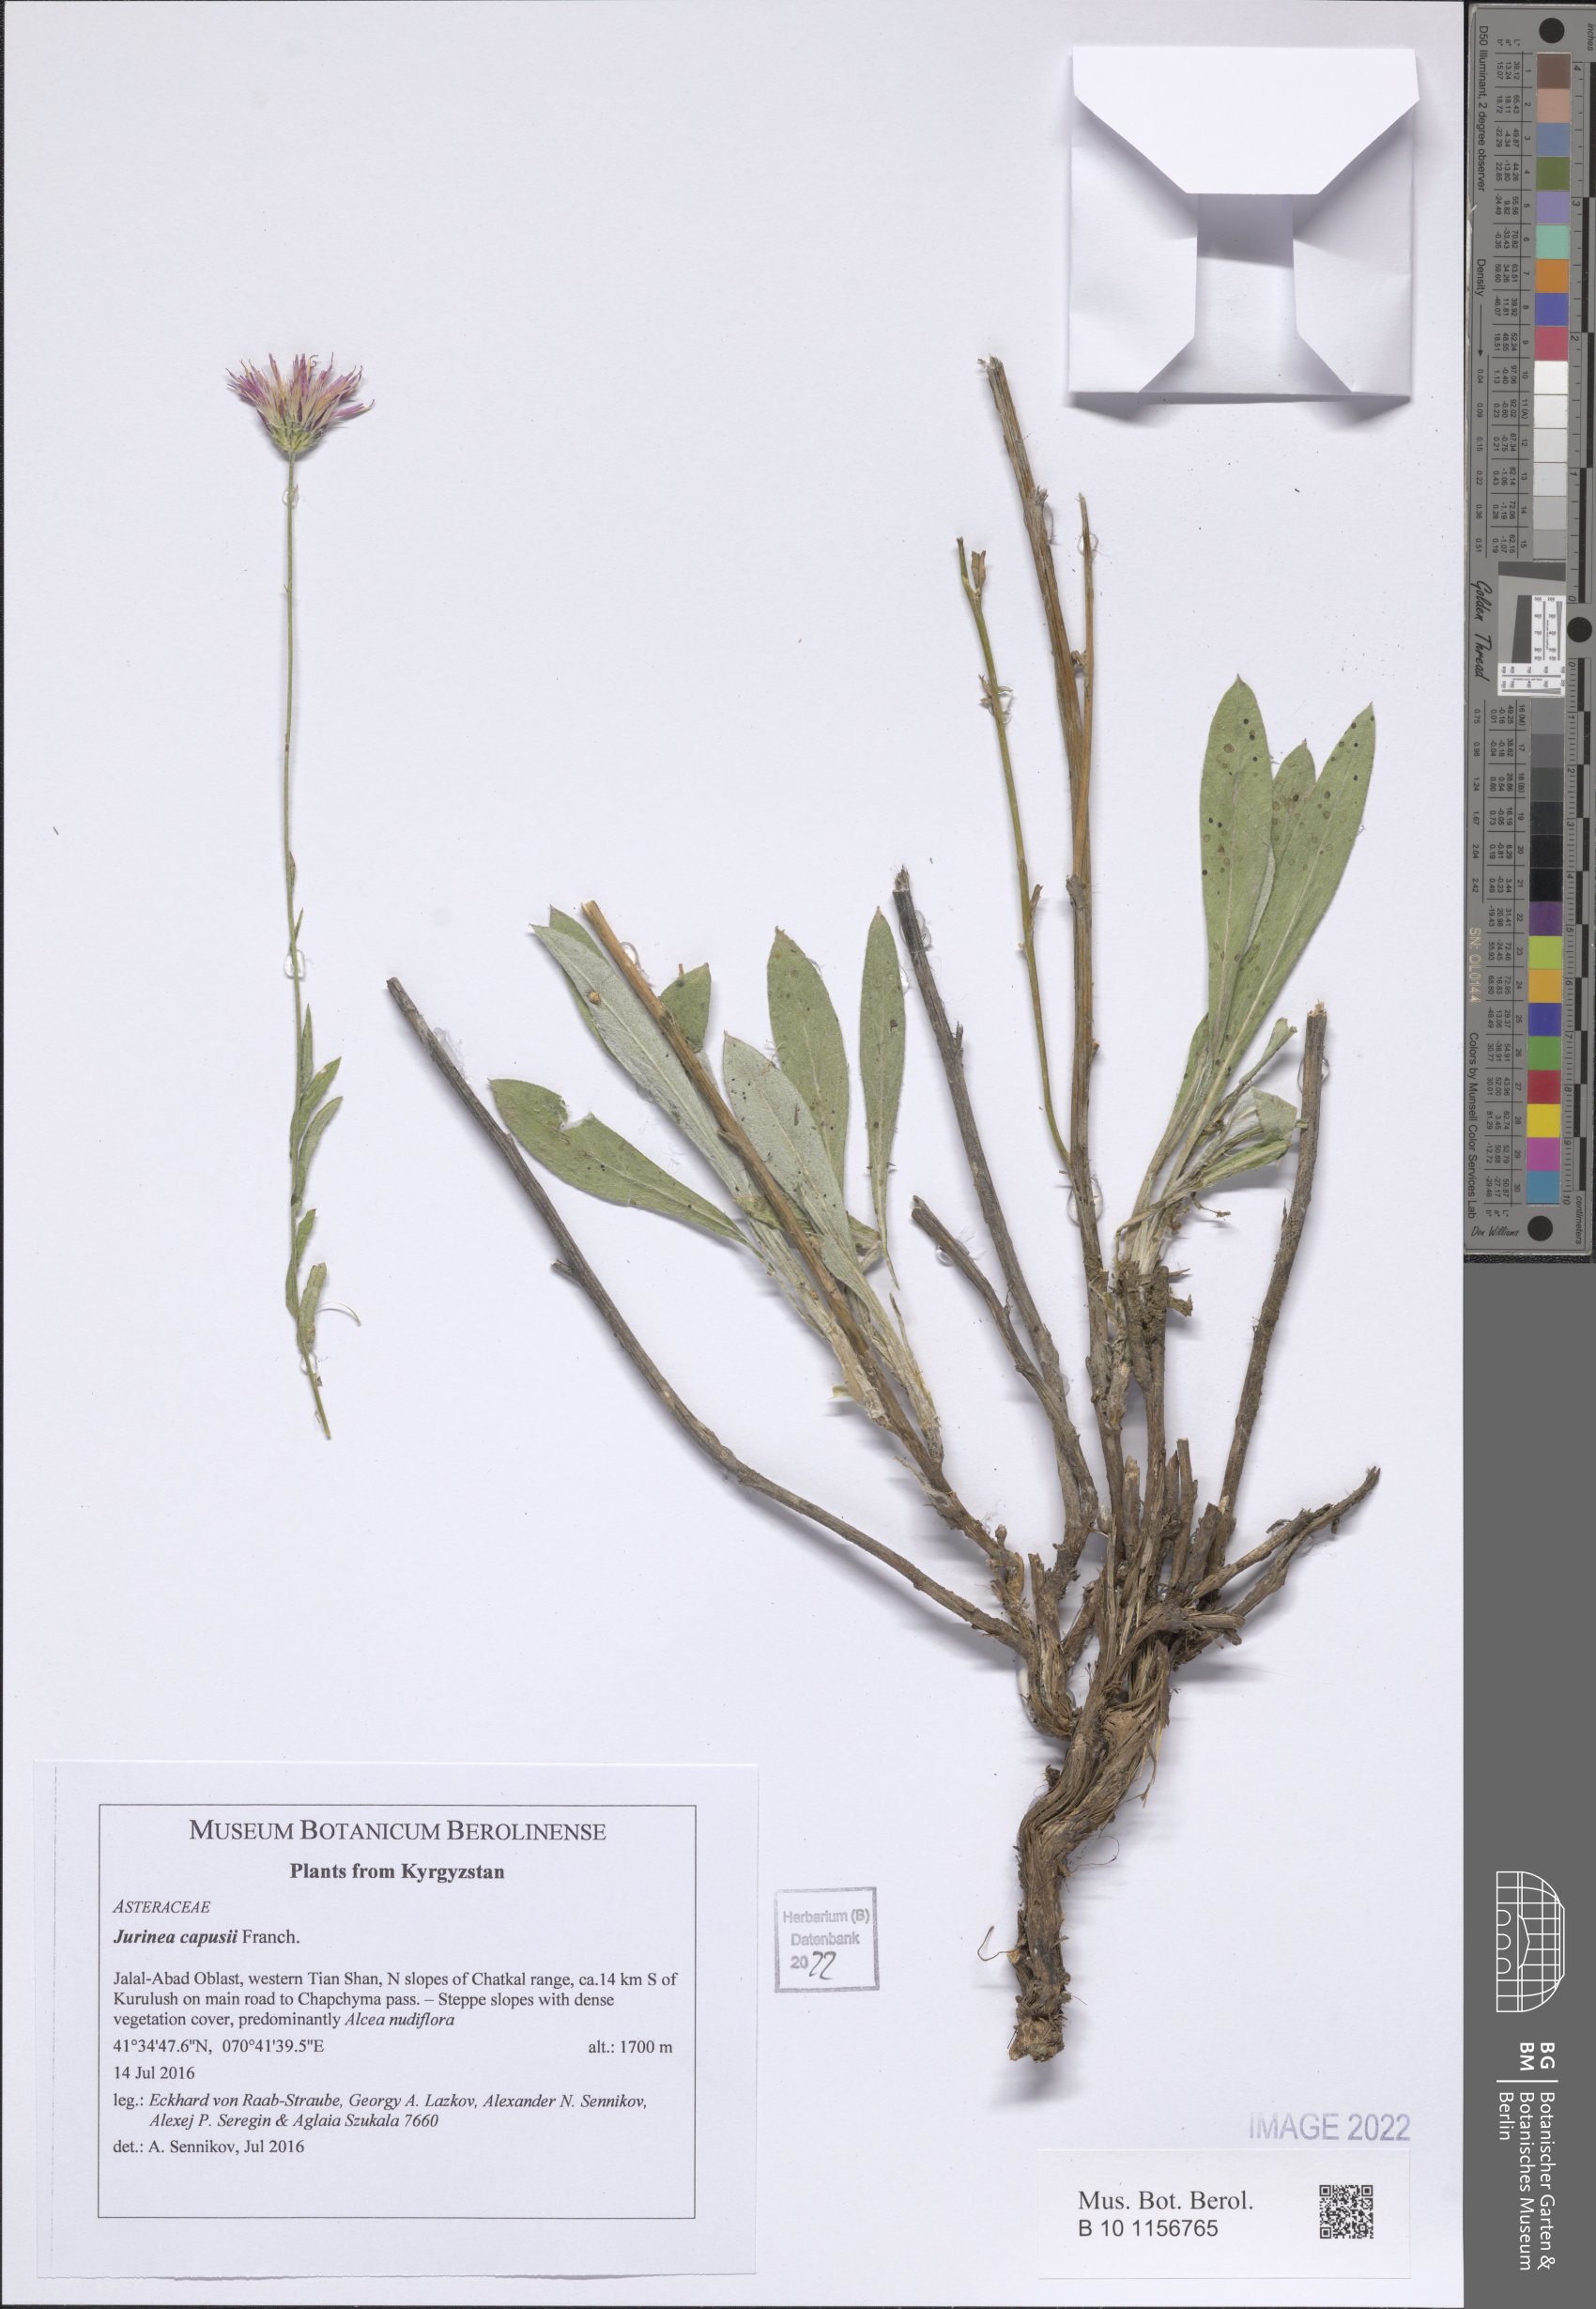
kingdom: Plantae
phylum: Tracheophyta
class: Magnoliopsida
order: Asterales
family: Asteraceae
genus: Jurinea
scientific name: Jurinea capusii
